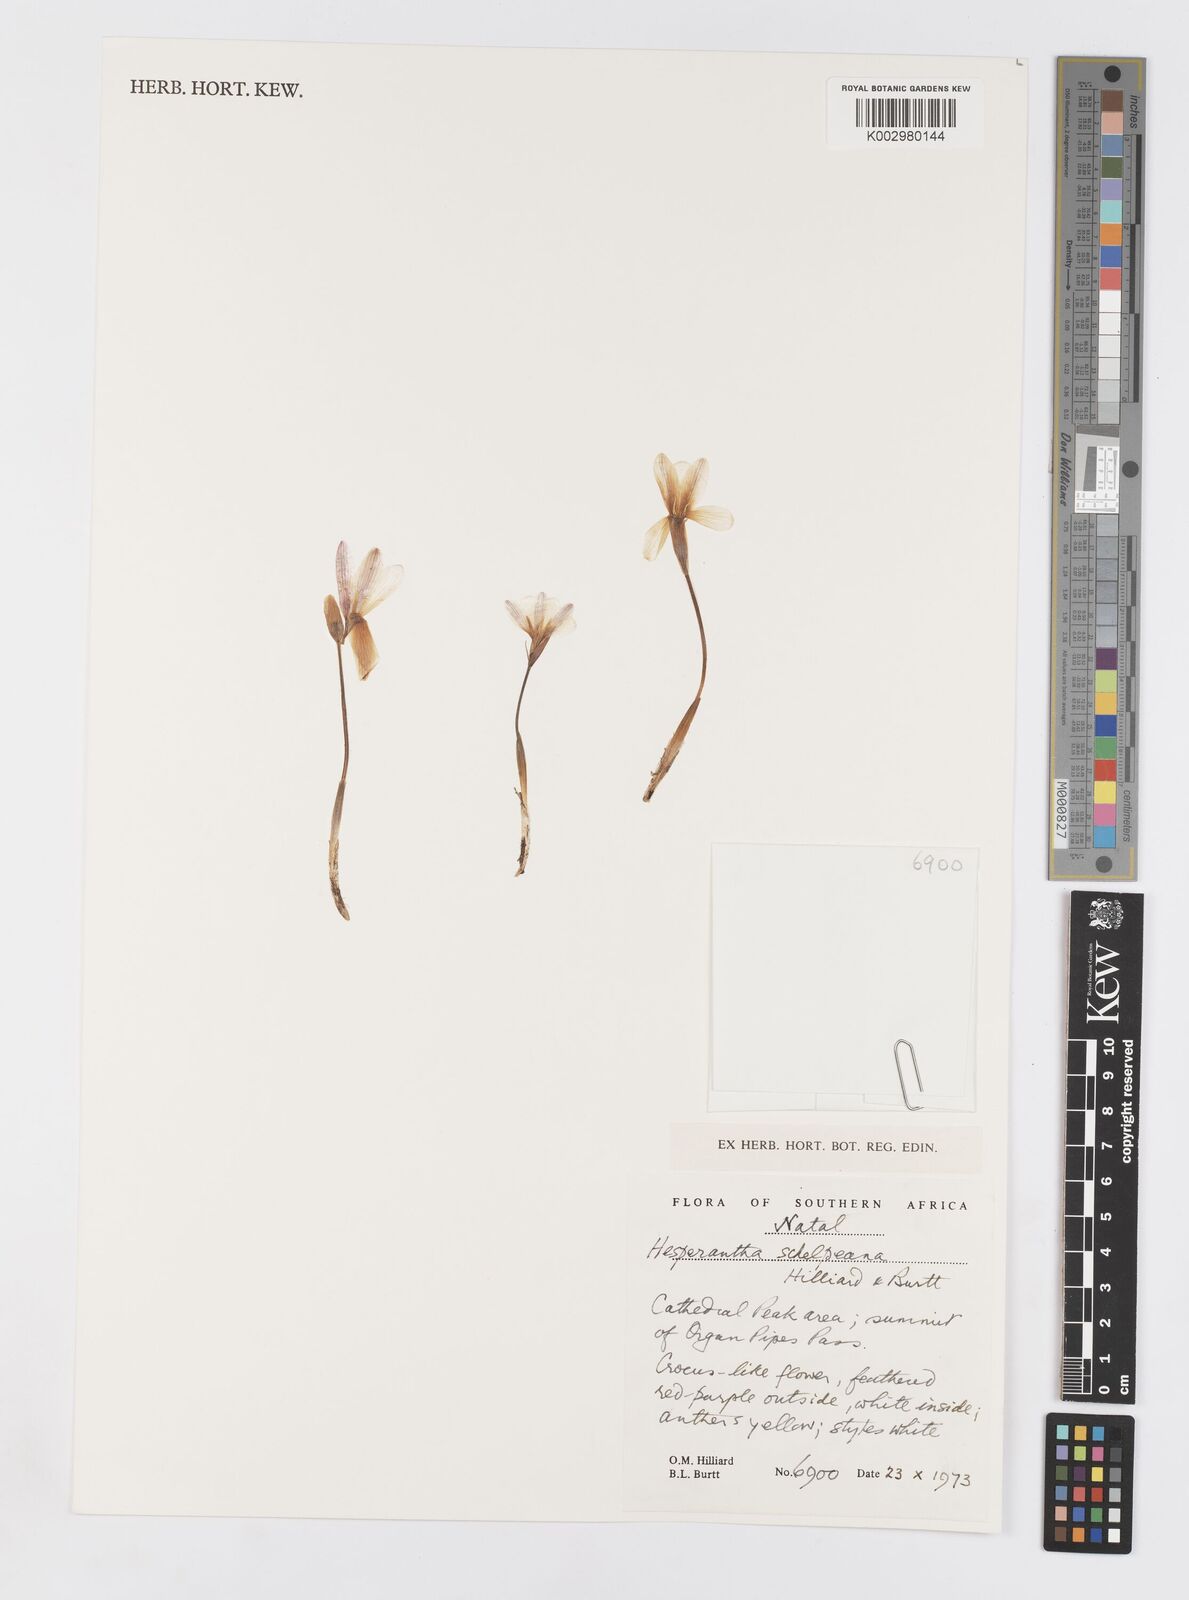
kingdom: Plantae
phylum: Tracheophyta
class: Liliopsida
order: Asparagales
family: Iridaceae
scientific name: Iridaceae
